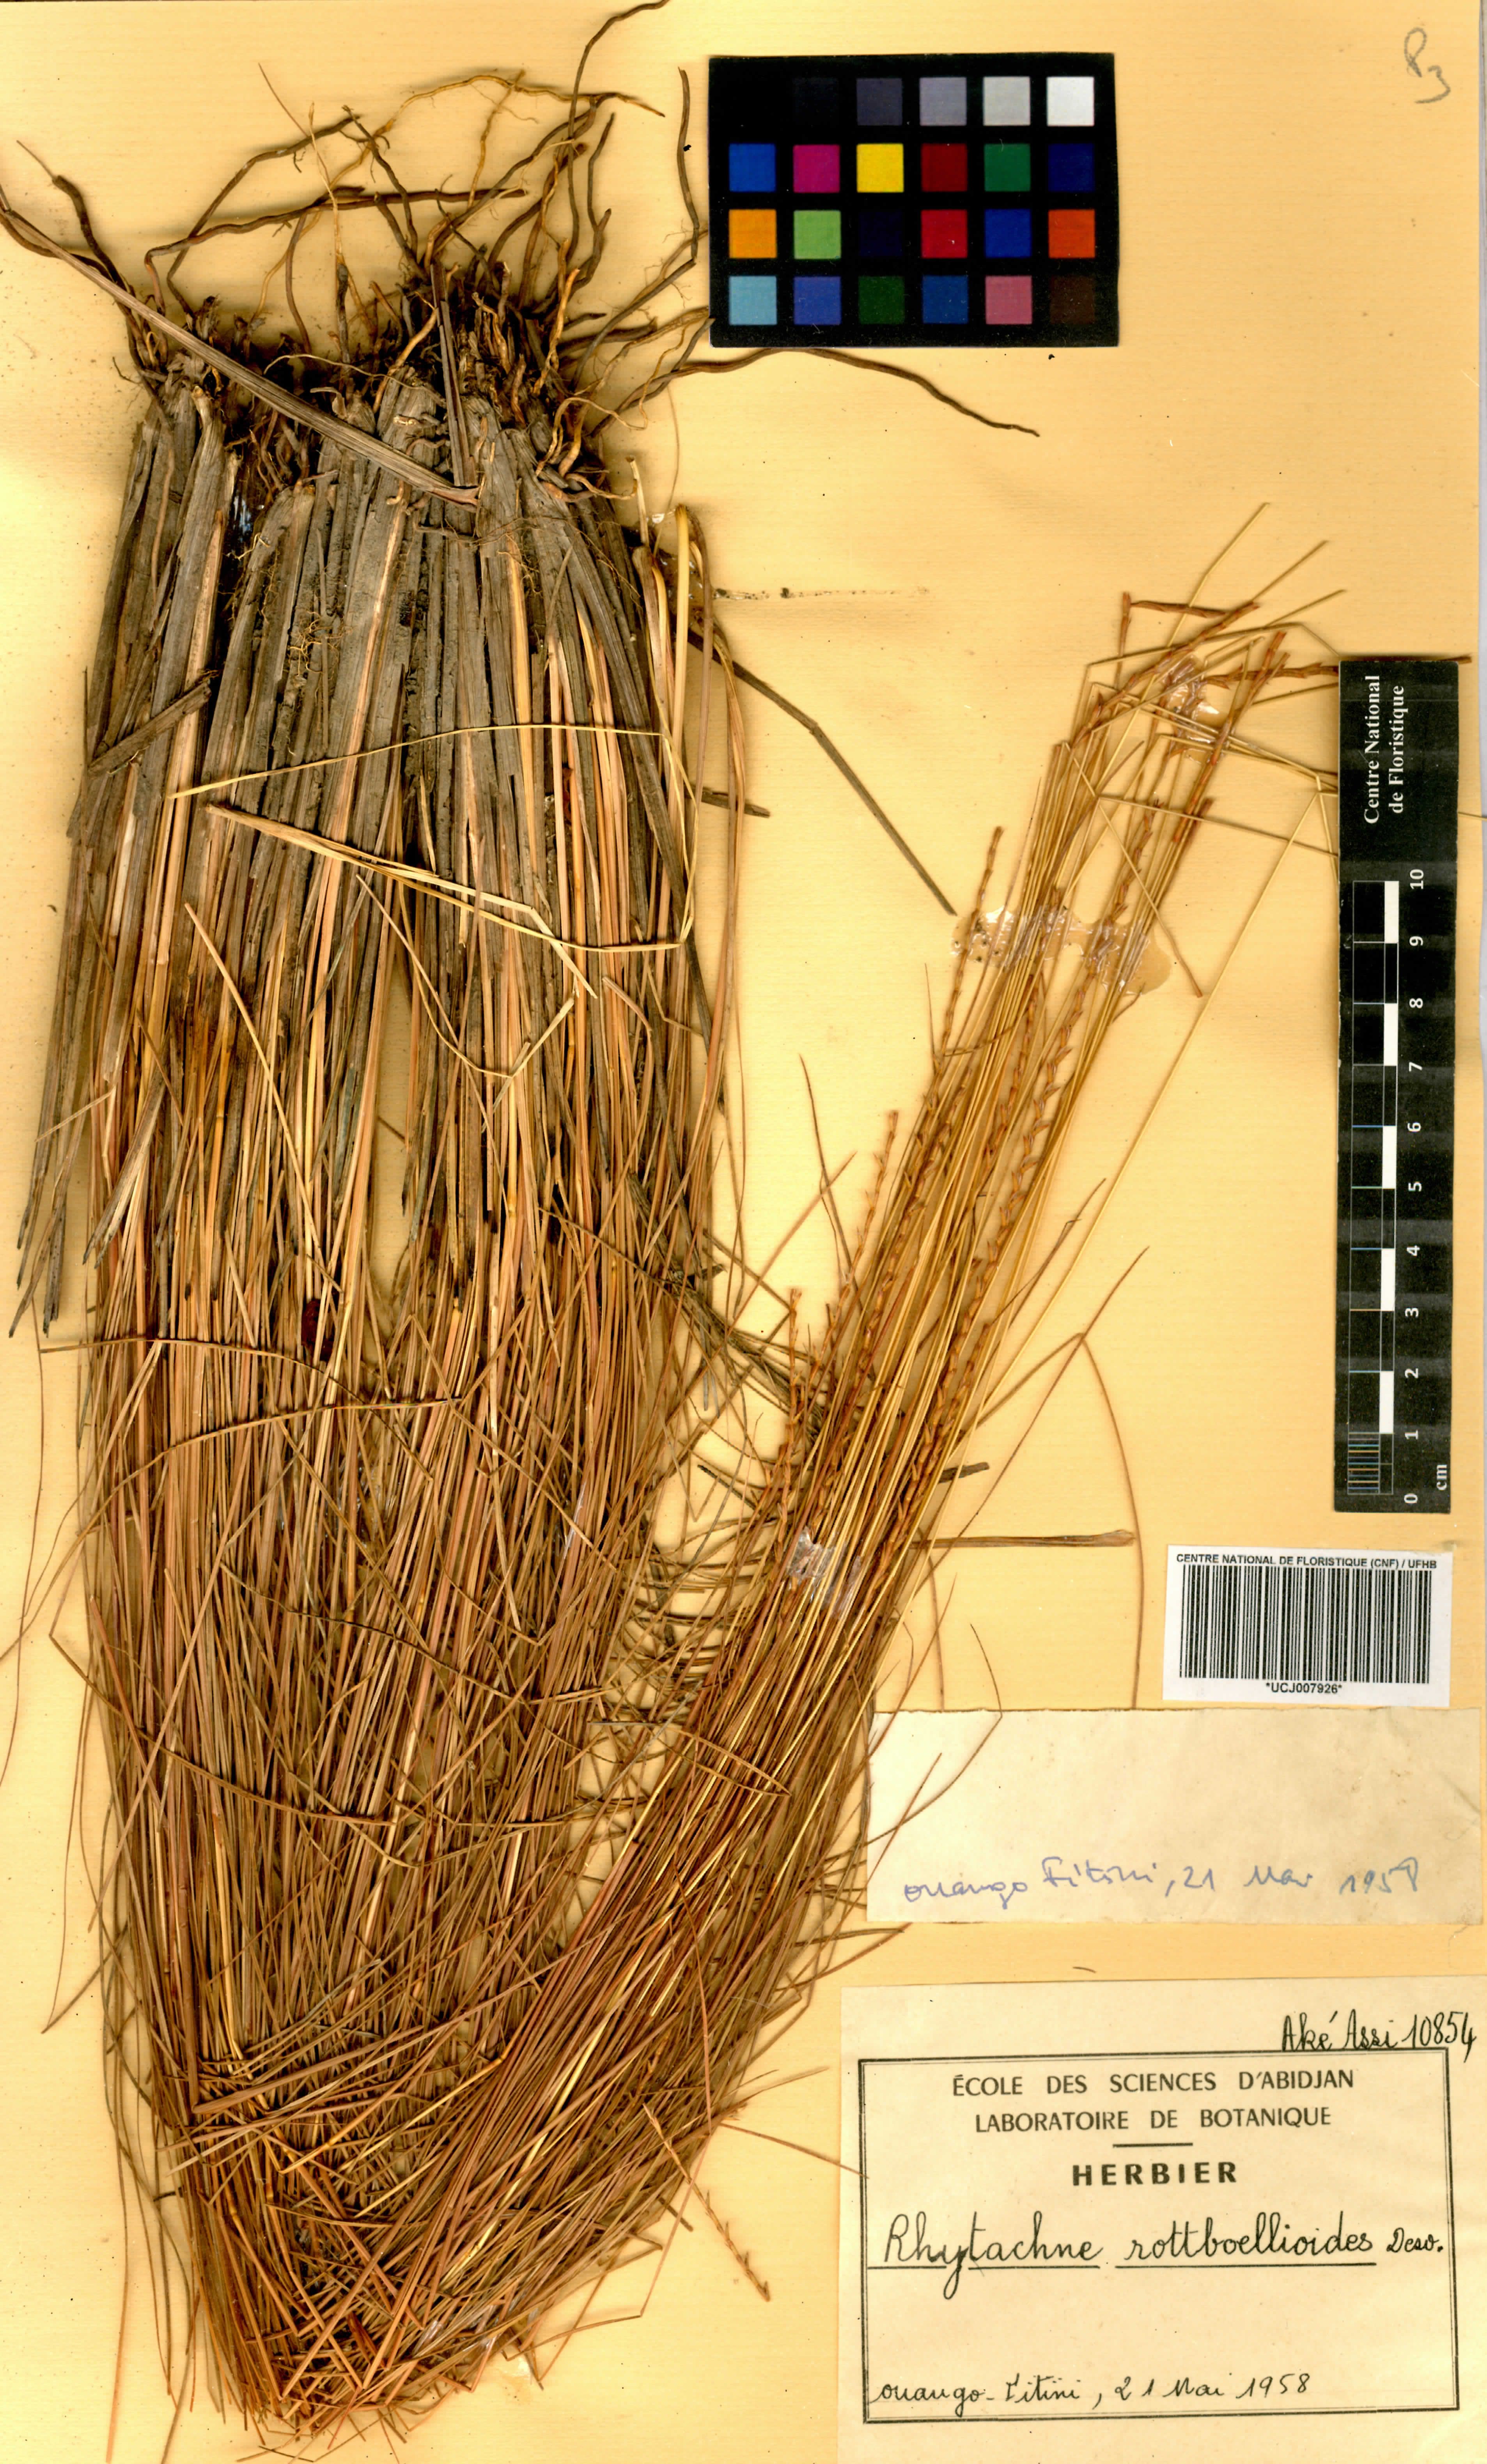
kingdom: Plantae
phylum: Tracheophyta
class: Liliopsida
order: Poales
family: Poaceae
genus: Rhytachne
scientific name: Rhytachne rottboellioides
